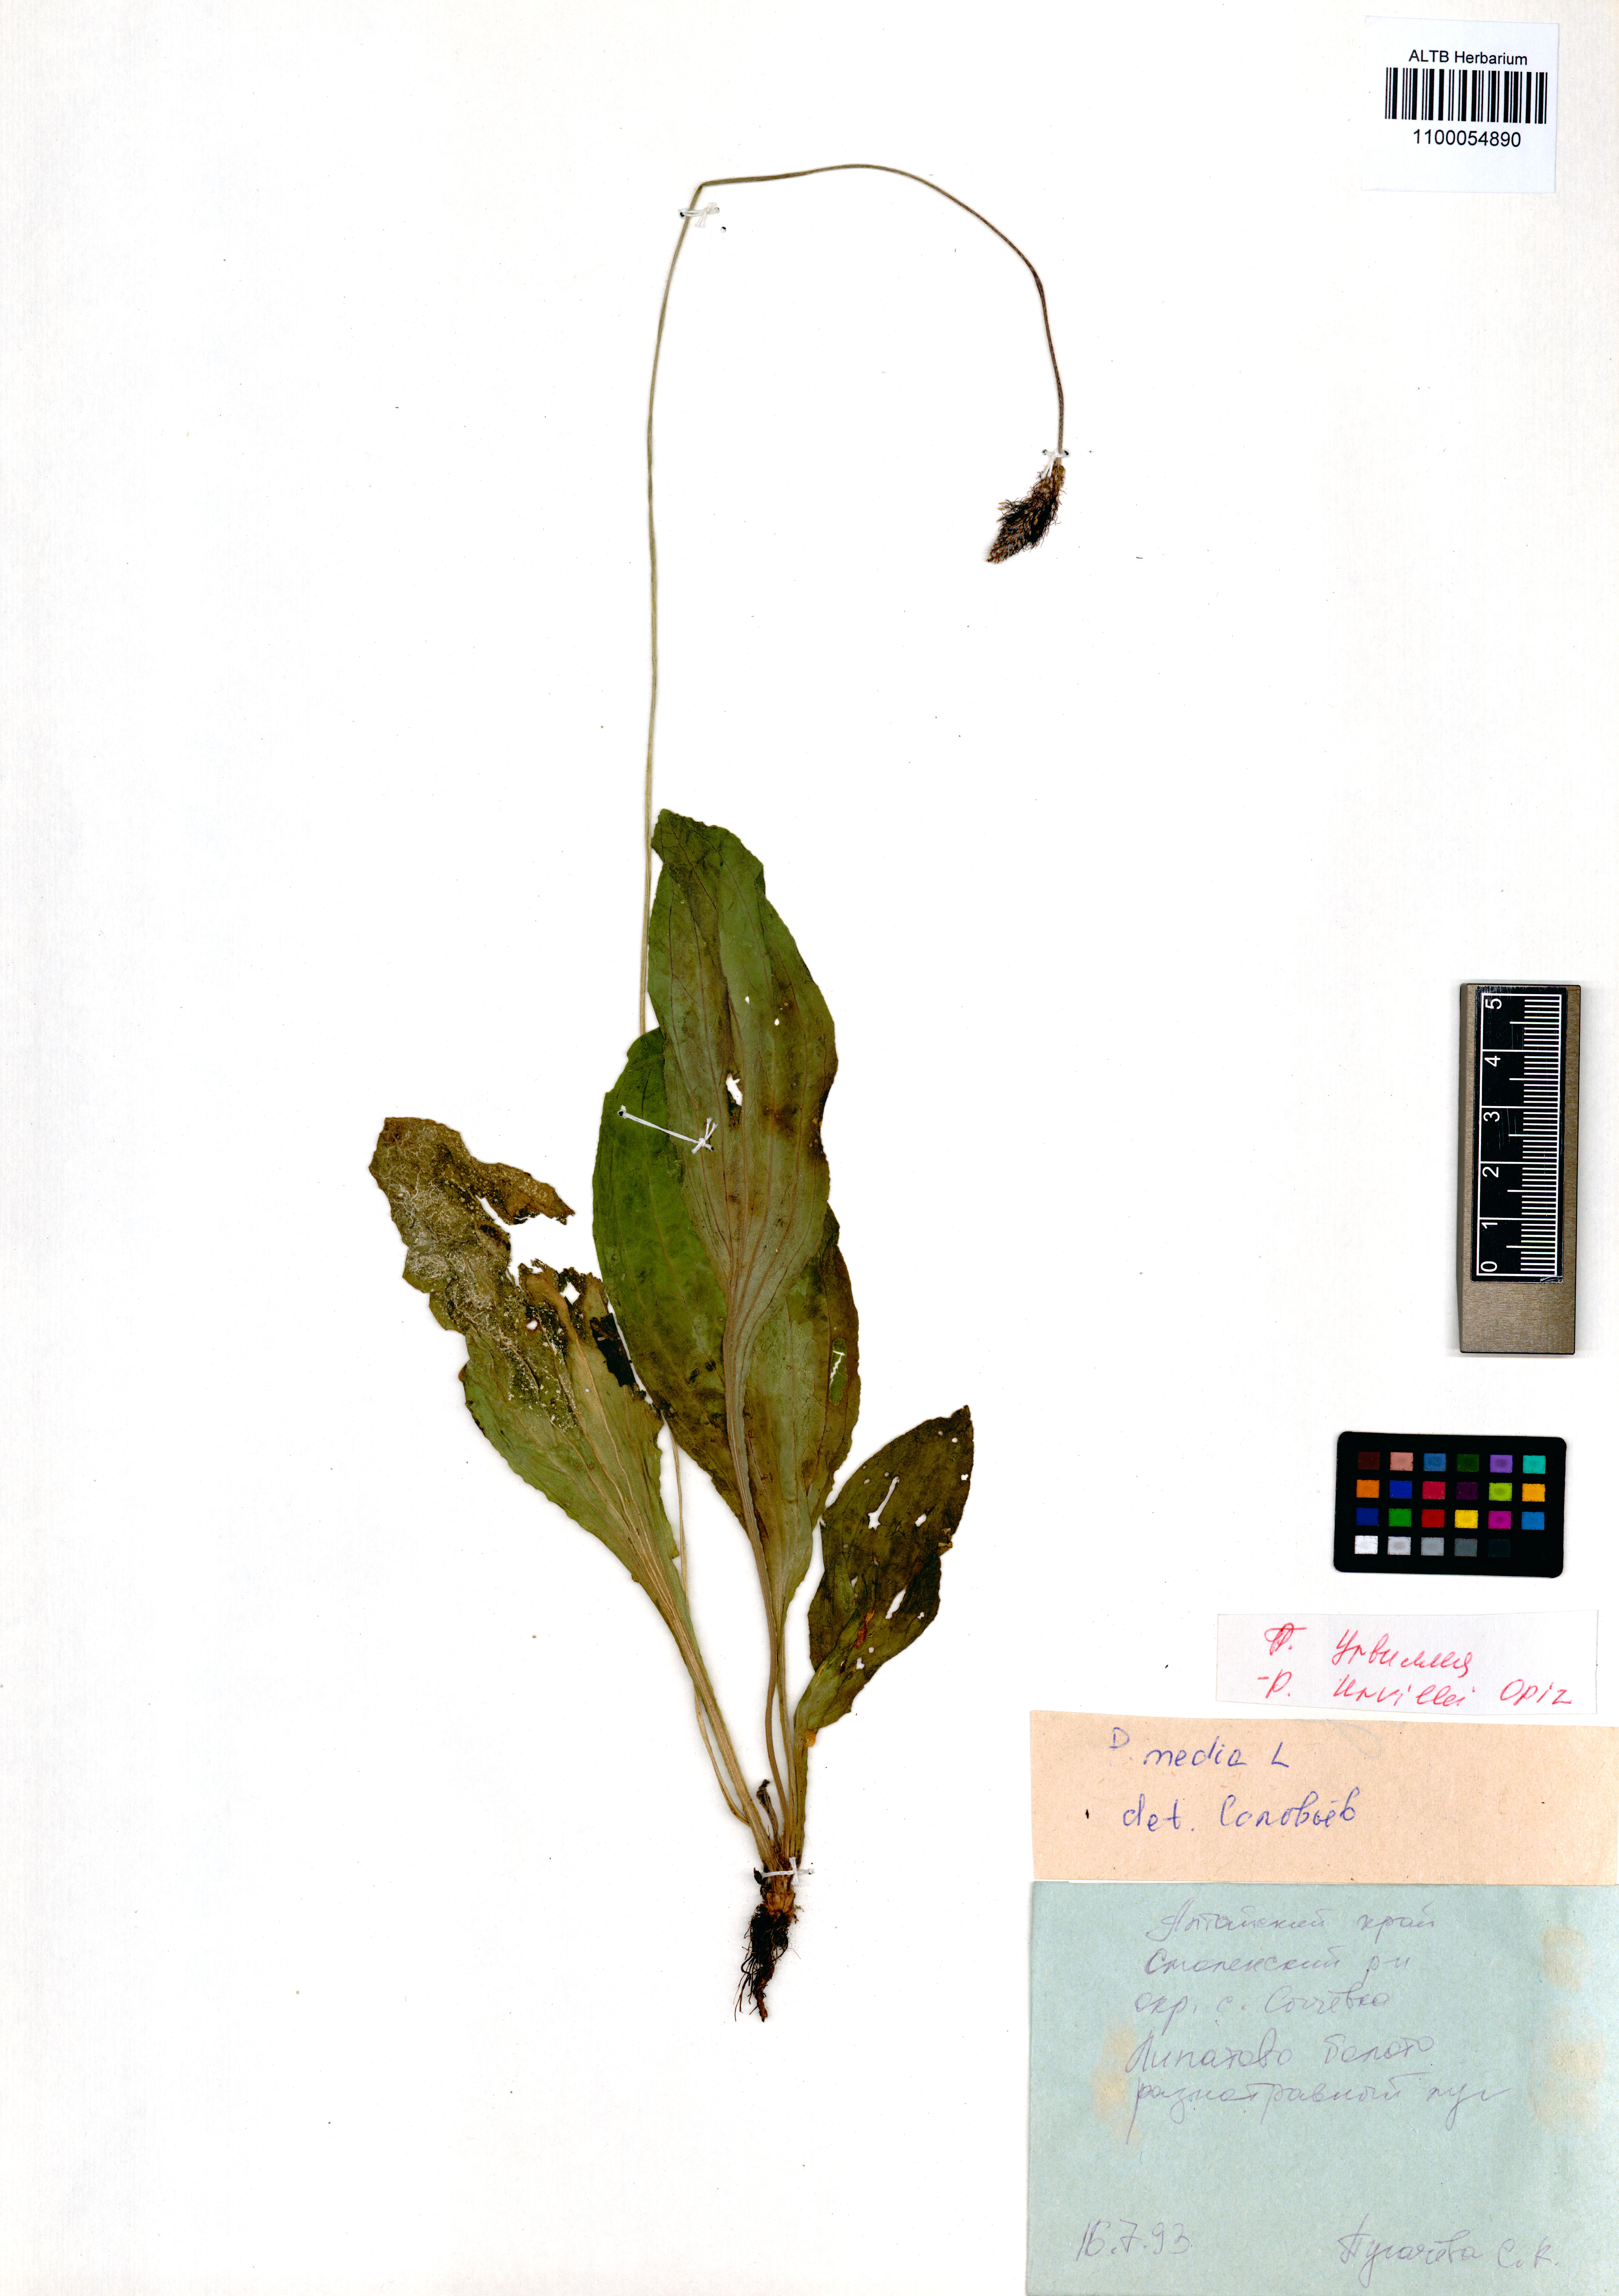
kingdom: Plantae
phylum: Tracheophyta
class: Magnoliopsida
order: Lamiales
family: Plantaginaceae
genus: Plantago
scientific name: Plantago urvillei
